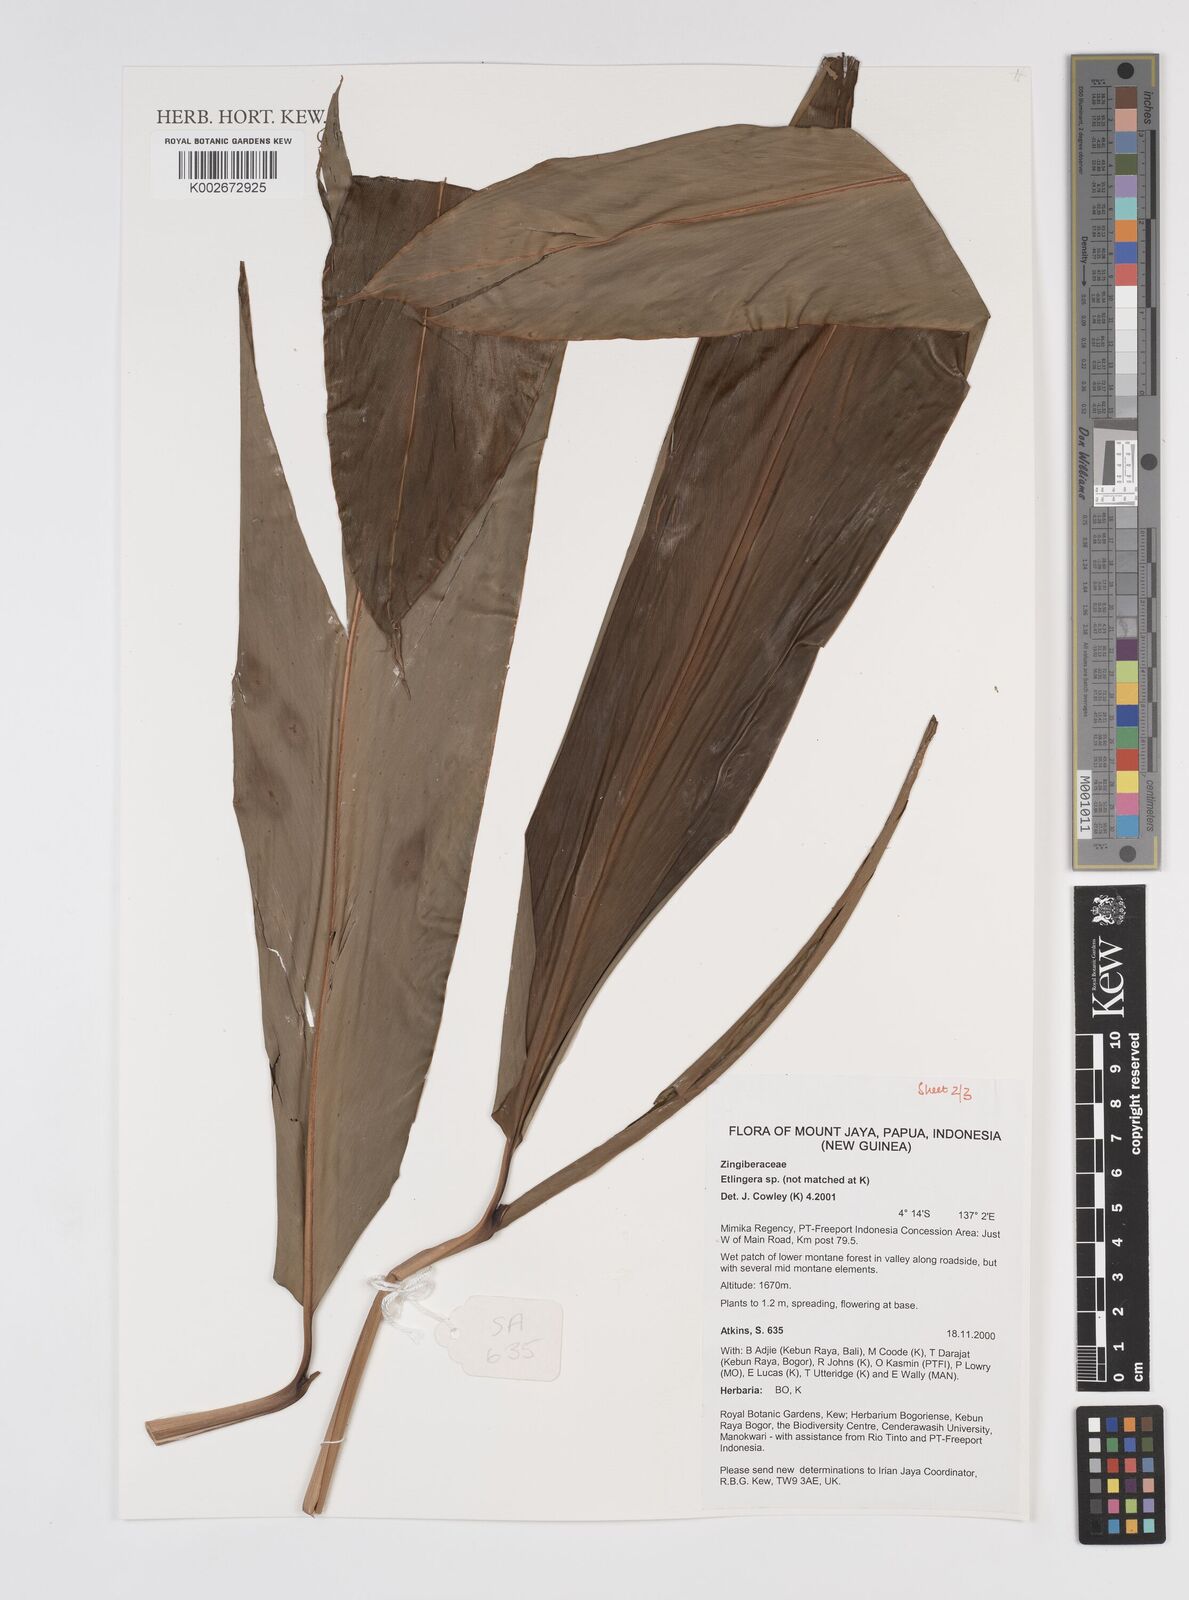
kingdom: Plantae
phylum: Tracheophyta
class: Liliopsida
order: Zingiberales
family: Zingiberaceae
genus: Etlingera
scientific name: Etlingera
